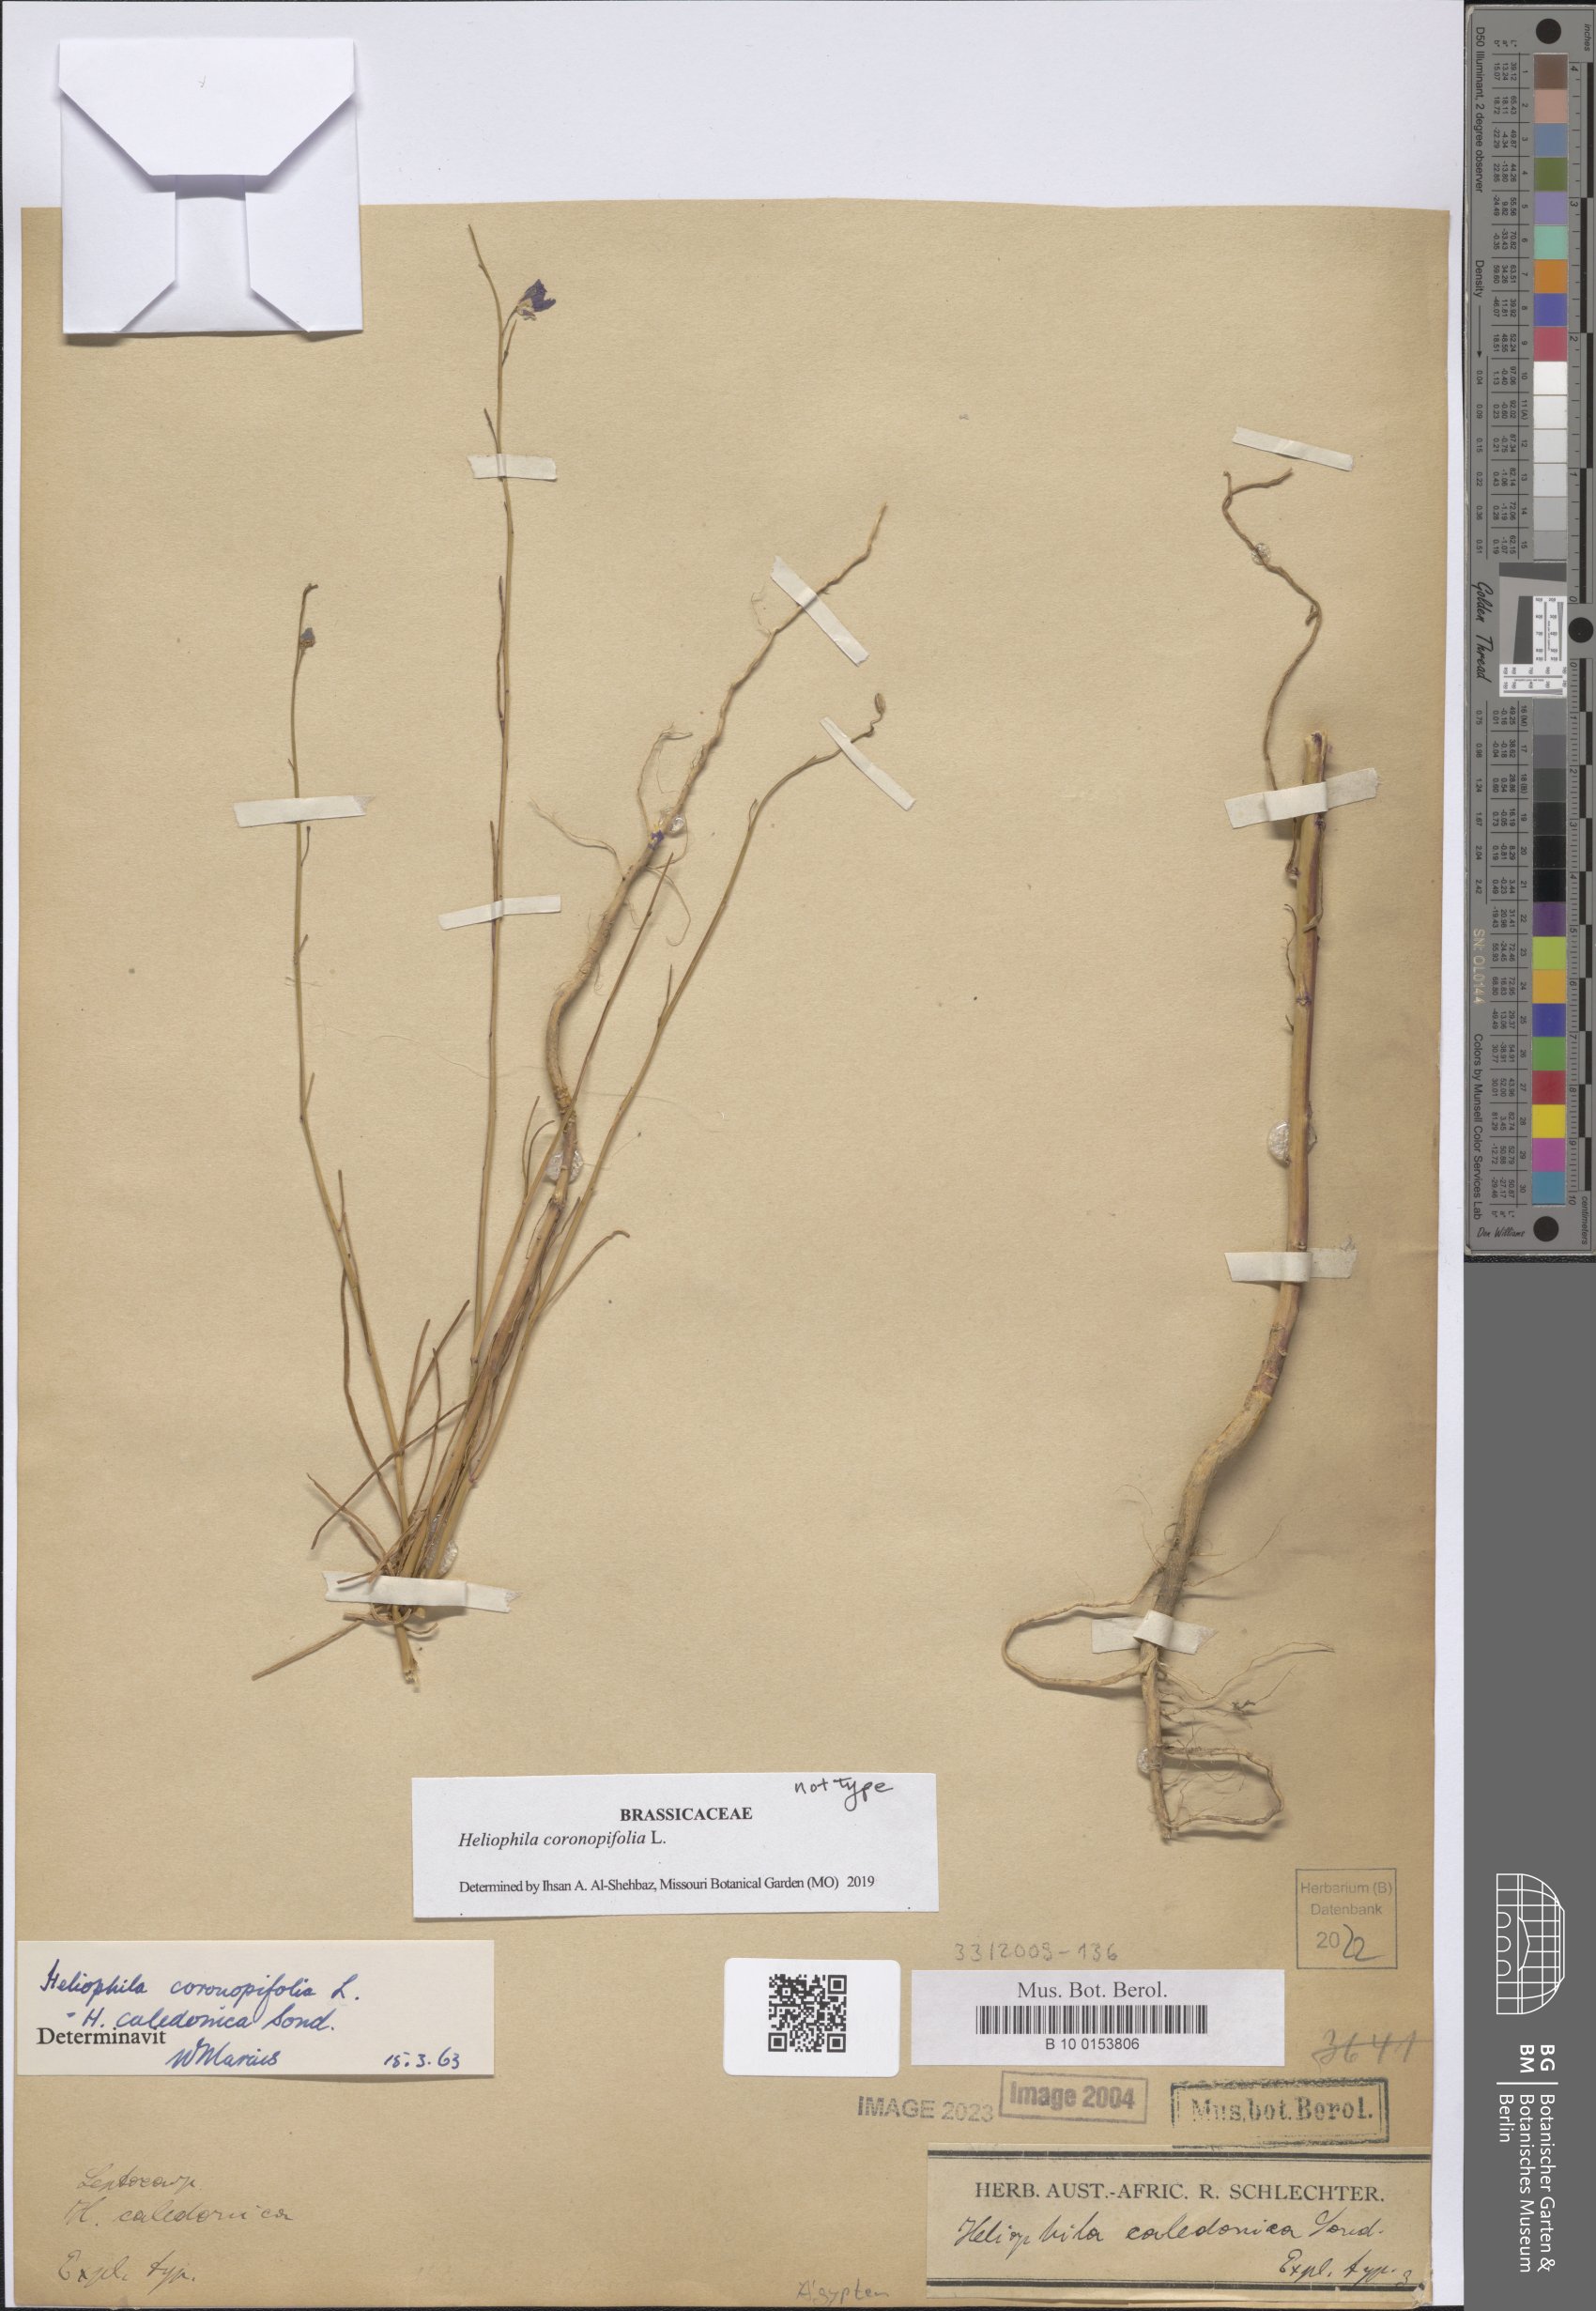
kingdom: Plantae
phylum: Tracheophyta
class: Magnoliopsida
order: Brassicales
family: Brassicaceae
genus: Heliophila
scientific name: Heliophila coronopifolia
